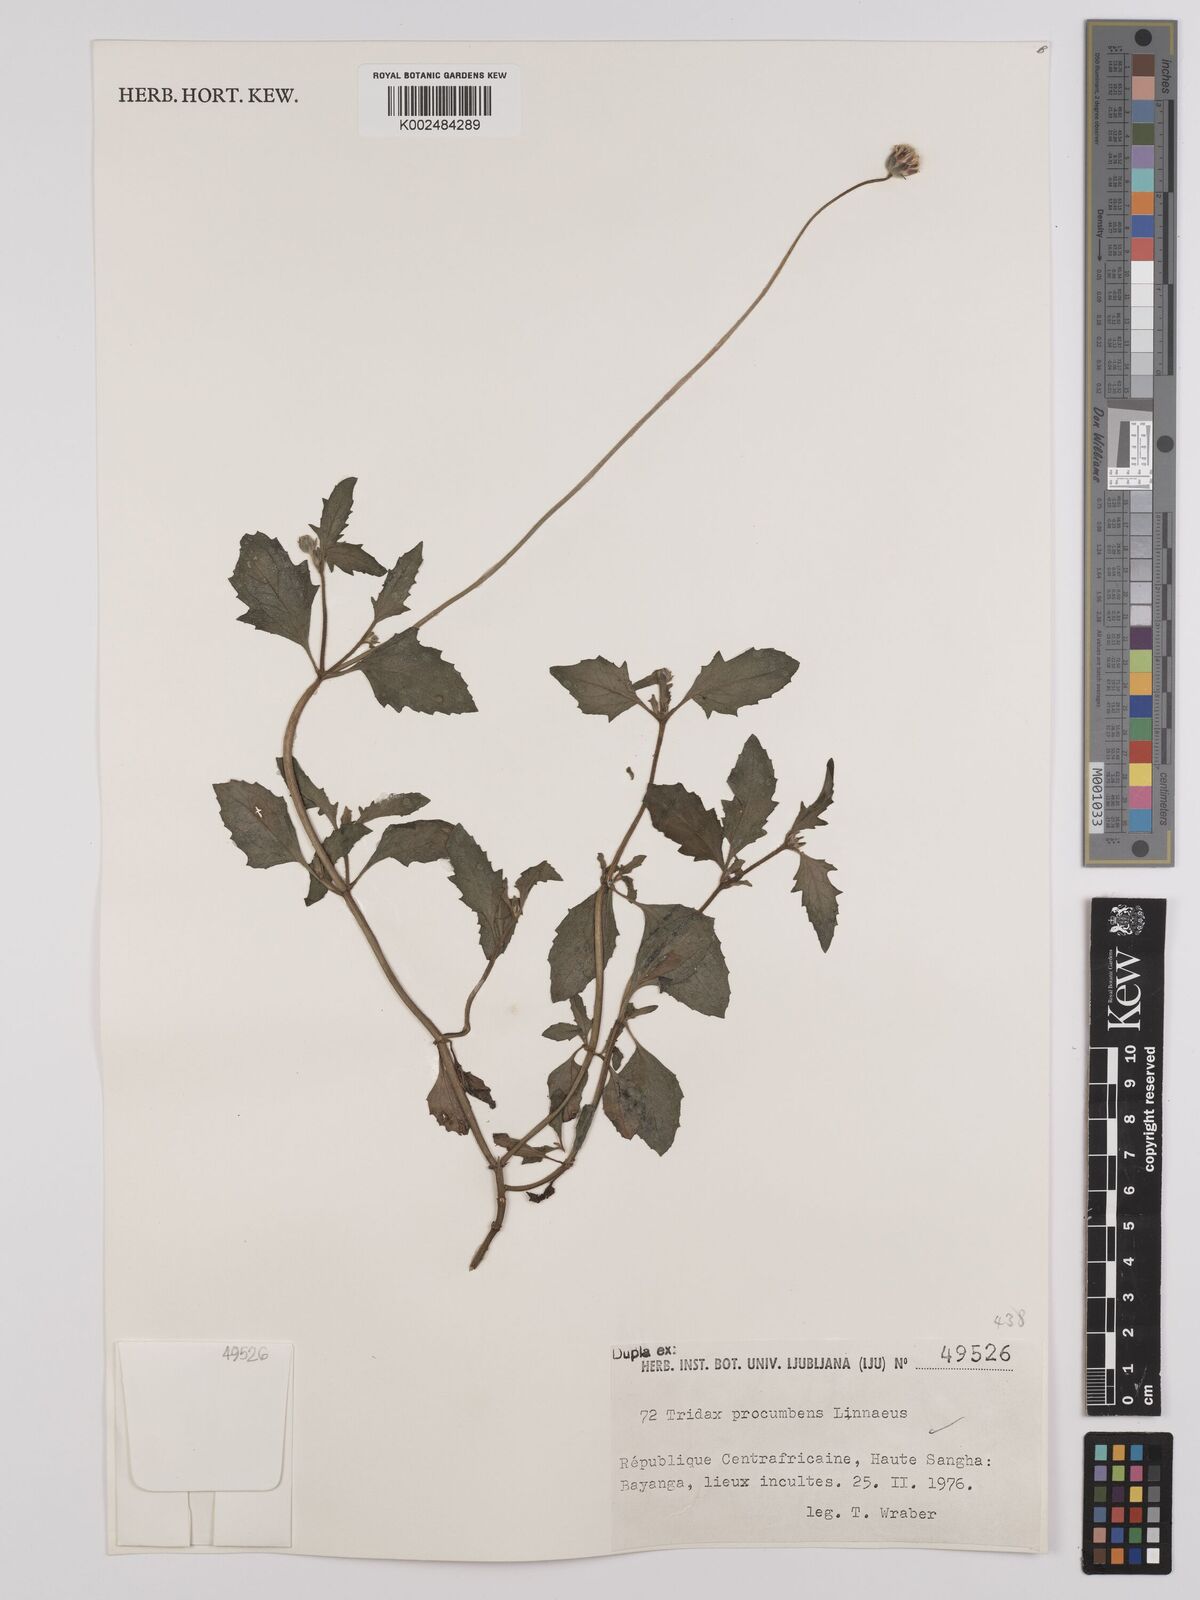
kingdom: Plantae
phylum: Tracheophyta
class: Magnoliopsida
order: Asterales
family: Asteraceae
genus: Tridax
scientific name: Tridax procumbens
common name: Coatbuttons
